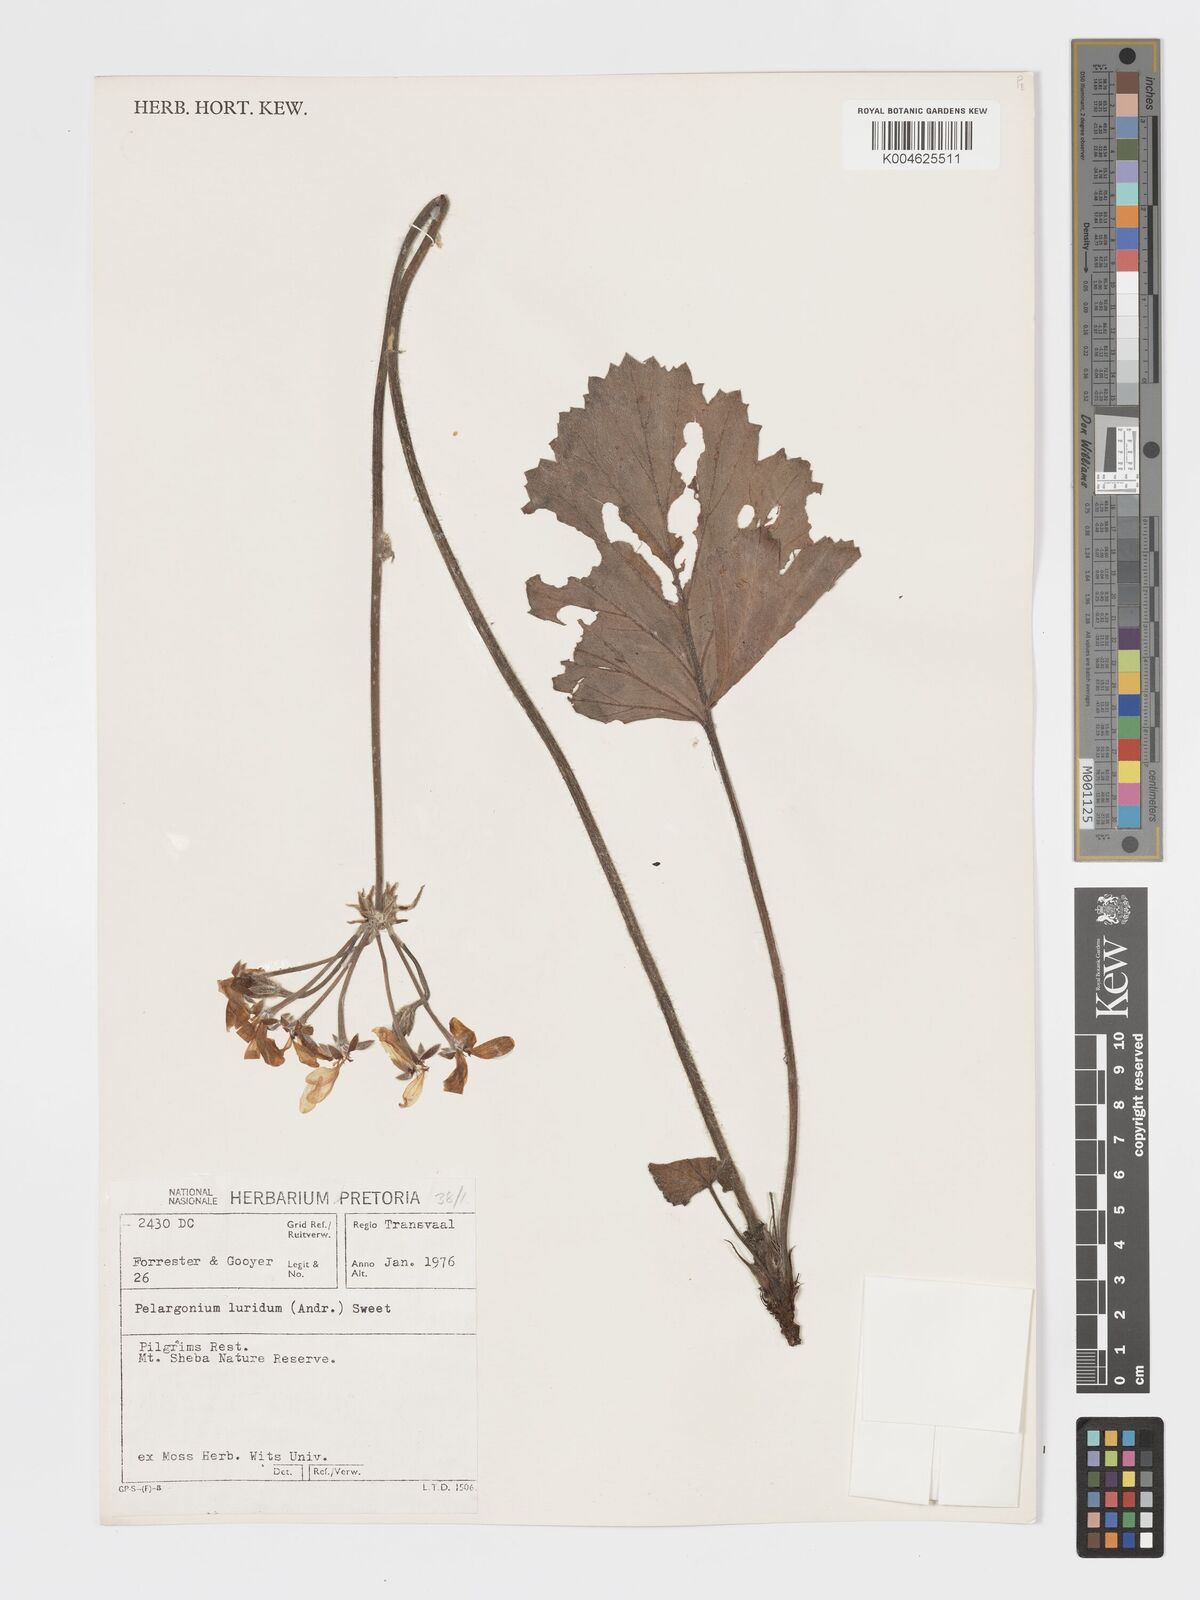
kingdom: Plantae
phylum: Tracheophyta
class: Magnoliopsida
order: Geraniales
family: Geraniaceae
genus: Pelargonium
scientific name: Pelargonium luridum
